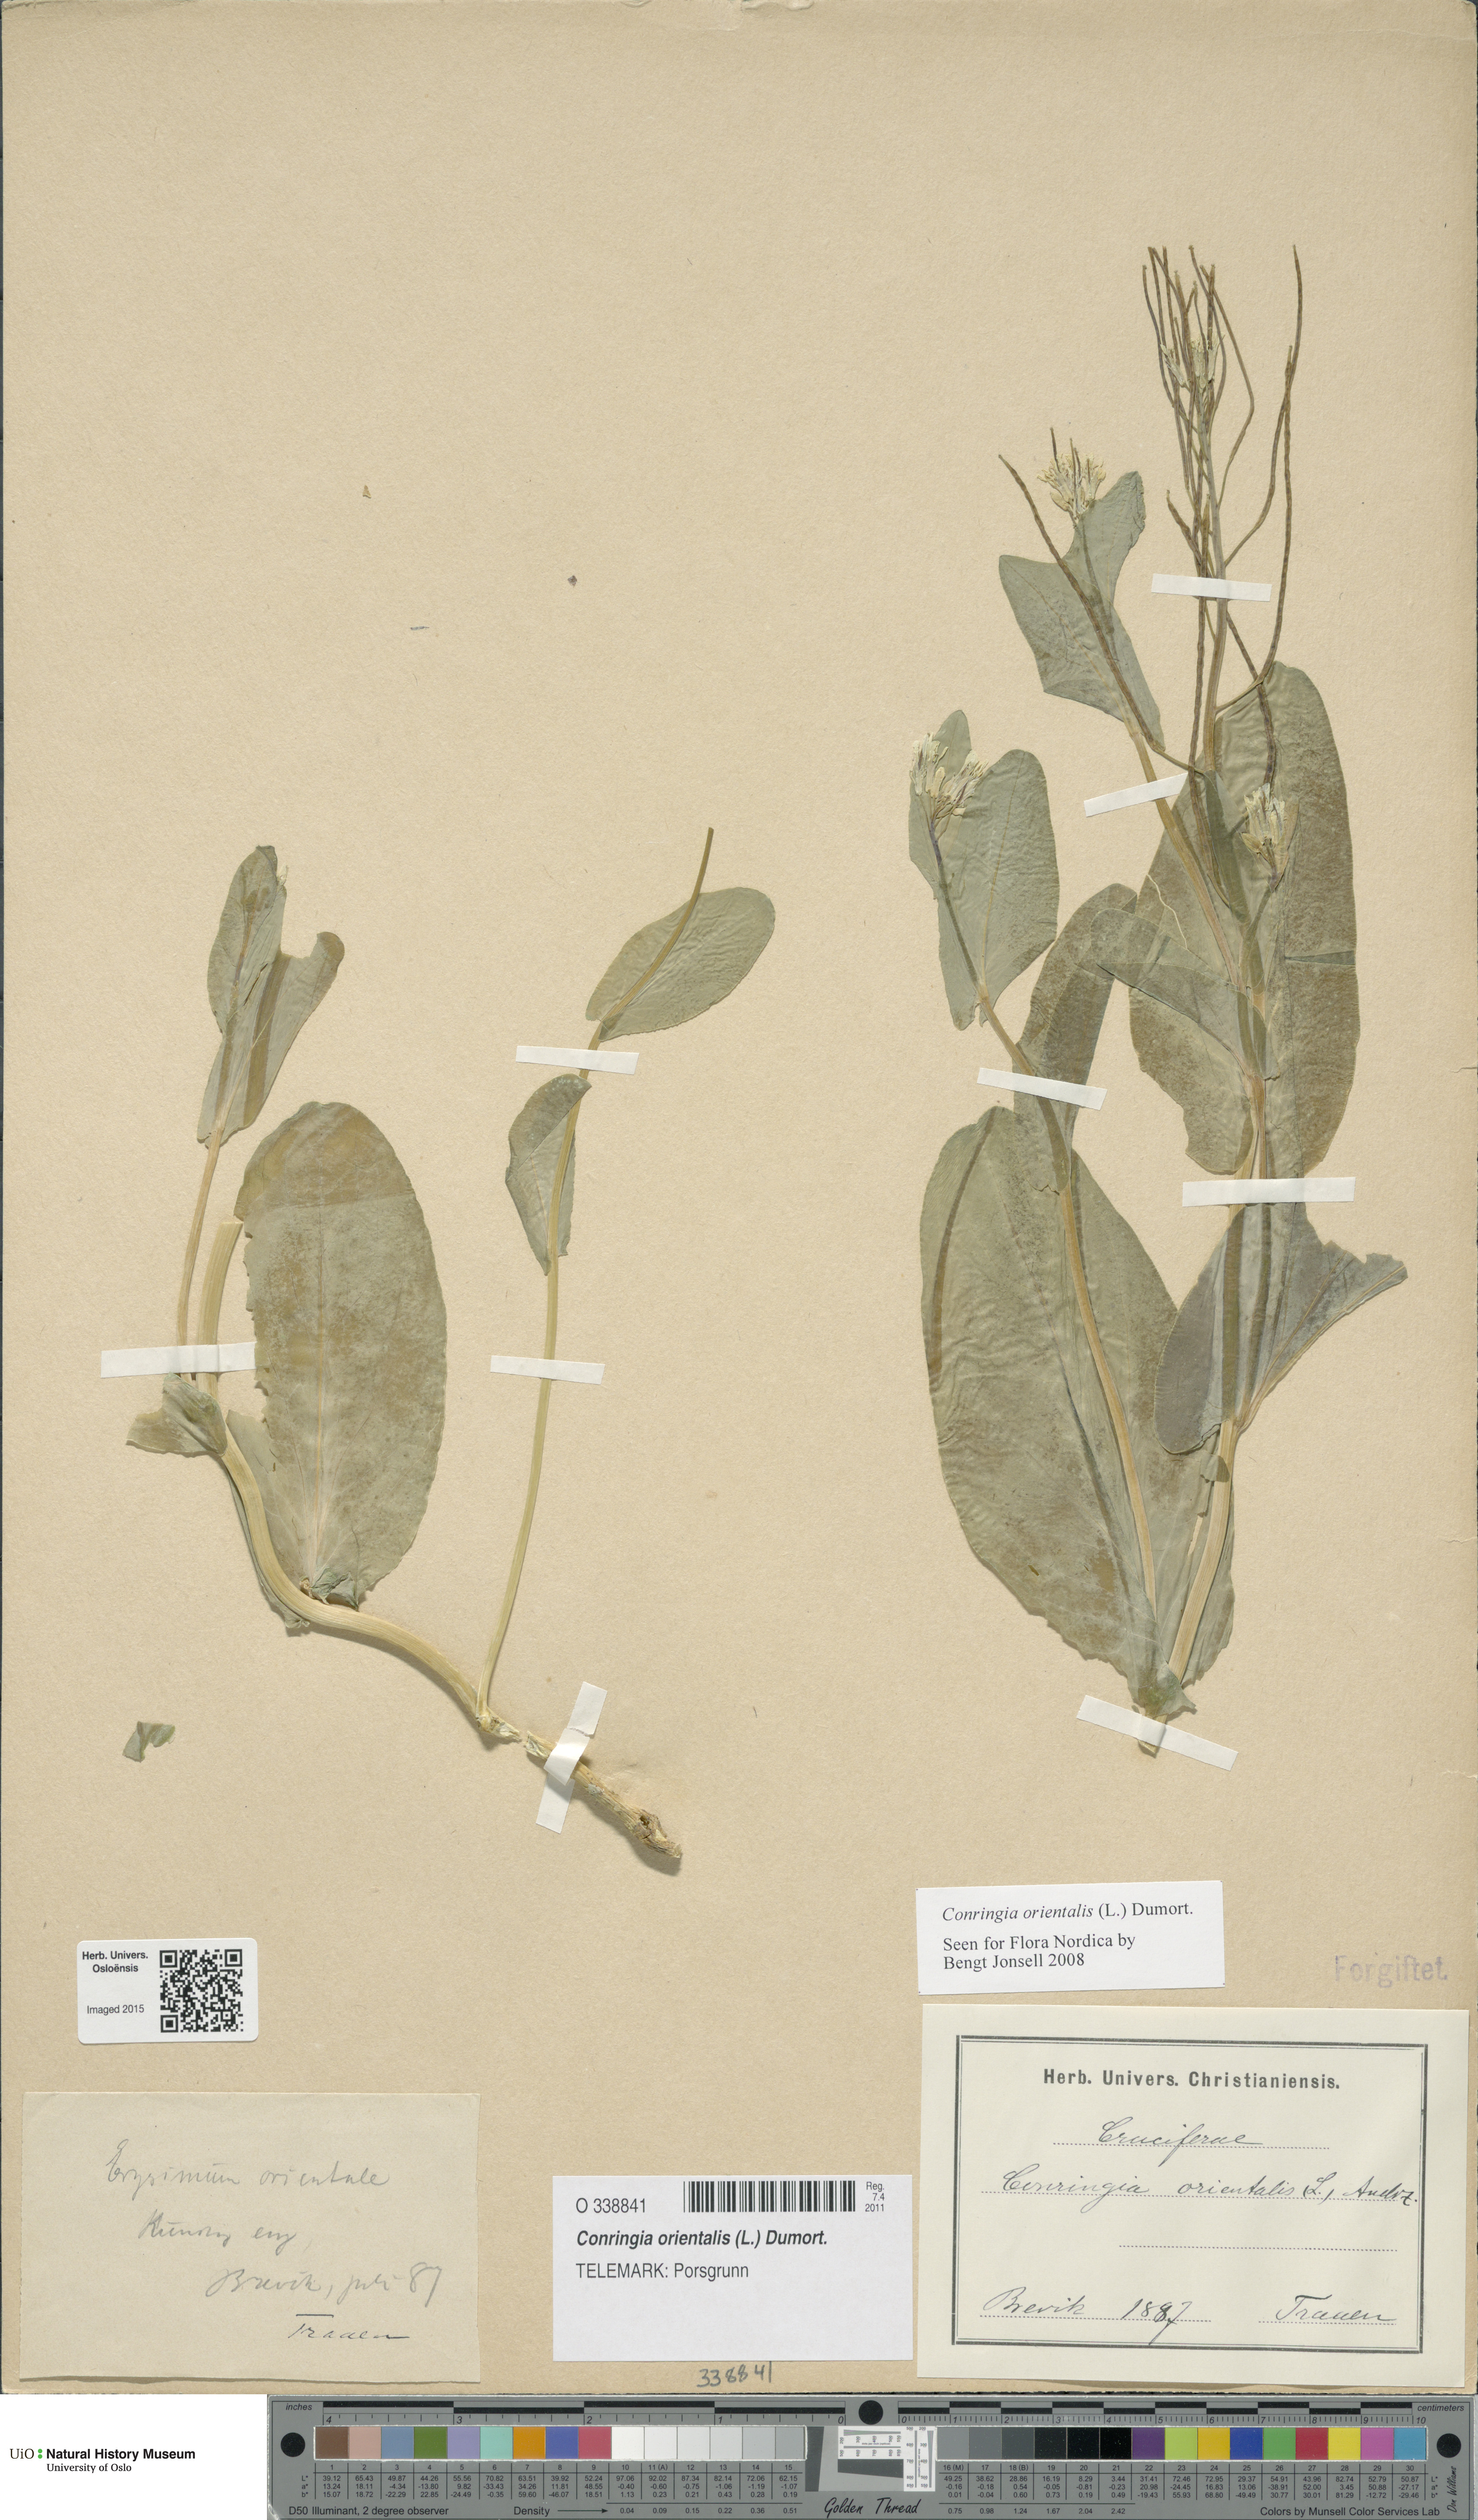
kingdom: Plantae
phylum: Tracheophyta
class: Magnoliopsida
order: Brassicales
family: Brassicaceae
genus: Conringia
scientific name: Conringia orientalis
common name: Hare's ear mustard
